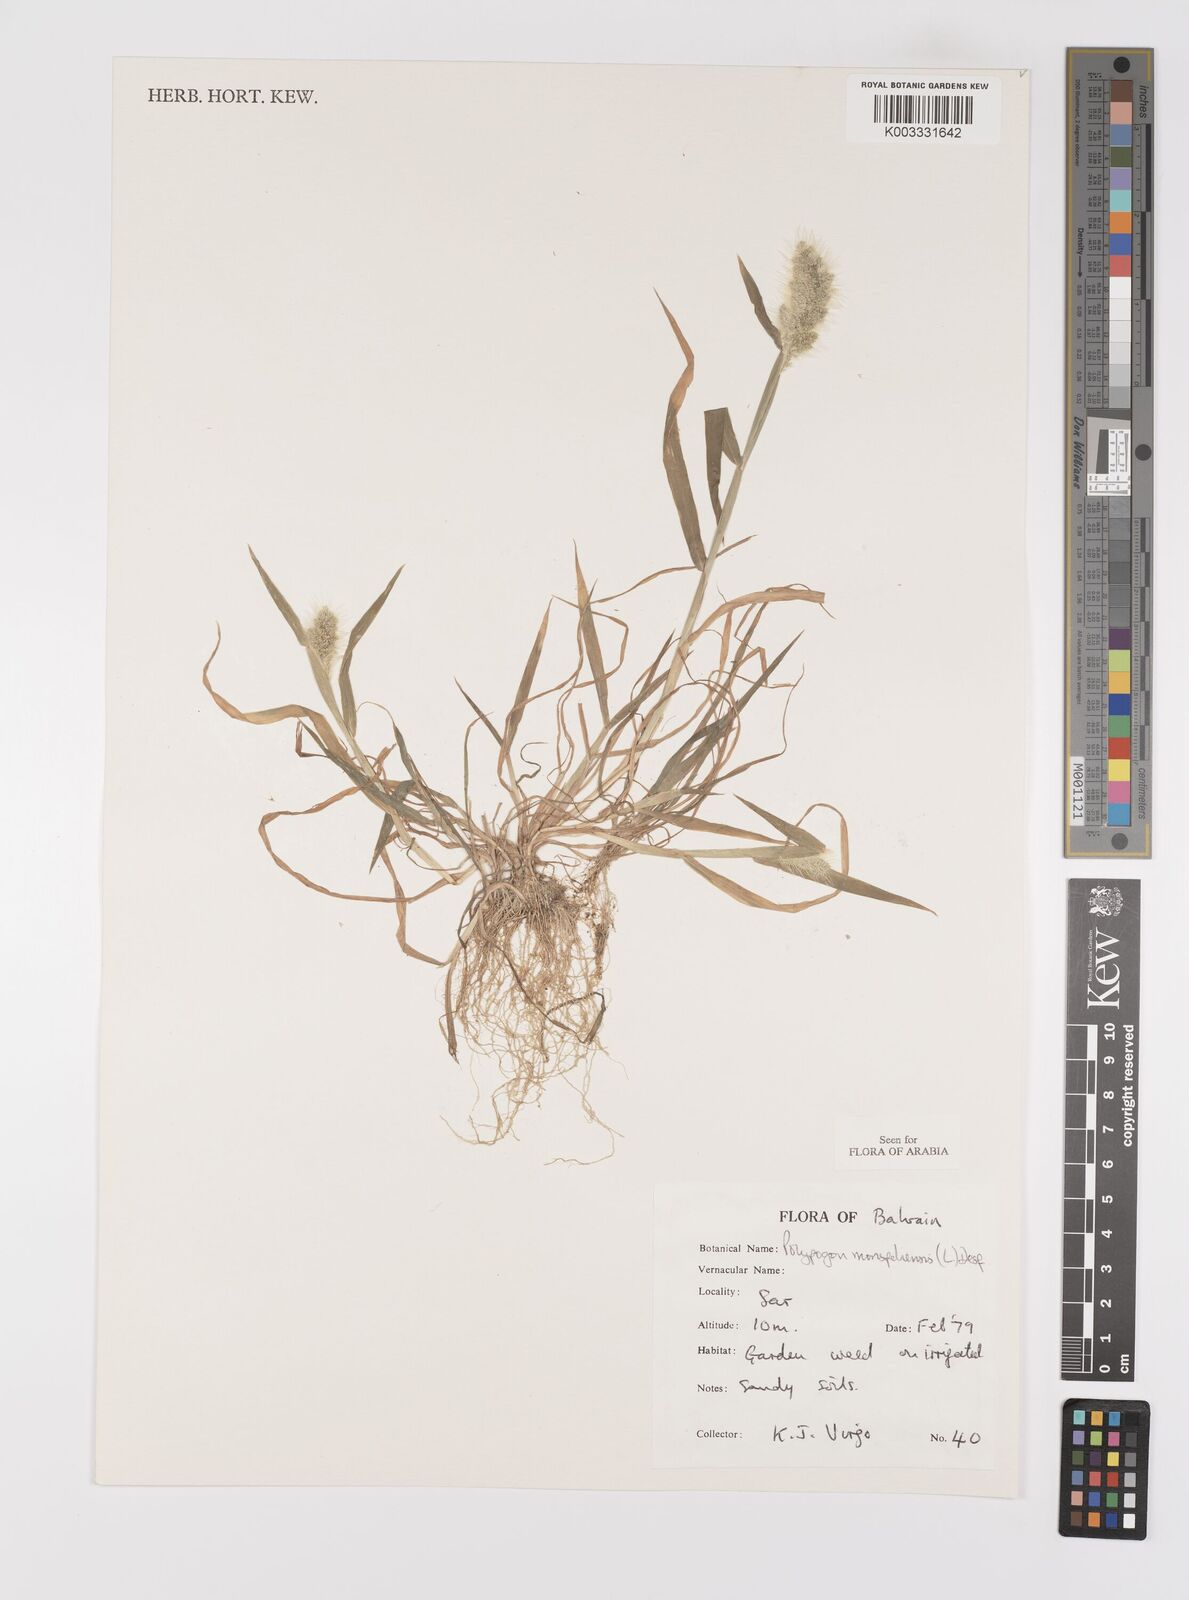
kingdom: Plantae
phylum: Tracheophyta
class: Liliopsida
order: Poales
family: Poaceae
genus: Polypogon
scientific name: Polypogon monspeliensis
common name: Annual rabbitsfoot grass
